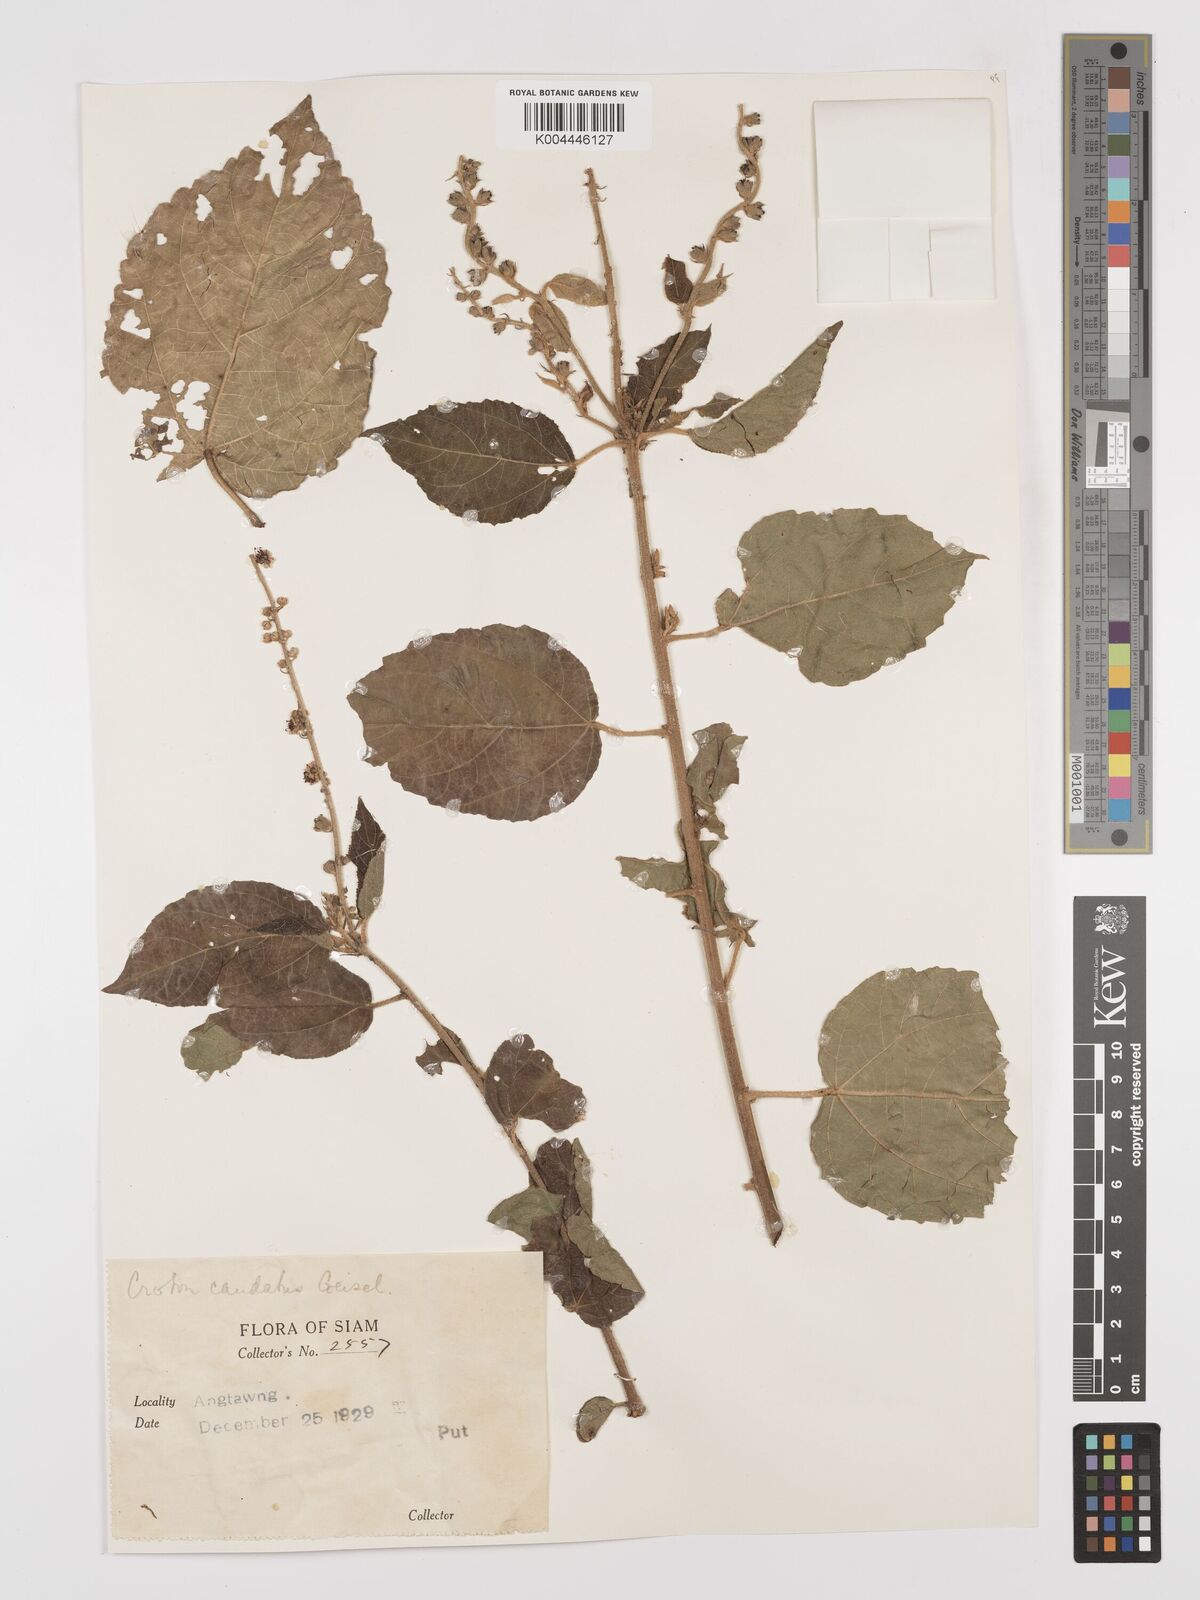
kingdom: Plantae
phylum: Tracheophyta
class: Magnoliopsida
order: Malpighiales
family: Euphorbiaceae
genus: Croton
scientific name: Croton caudatus
